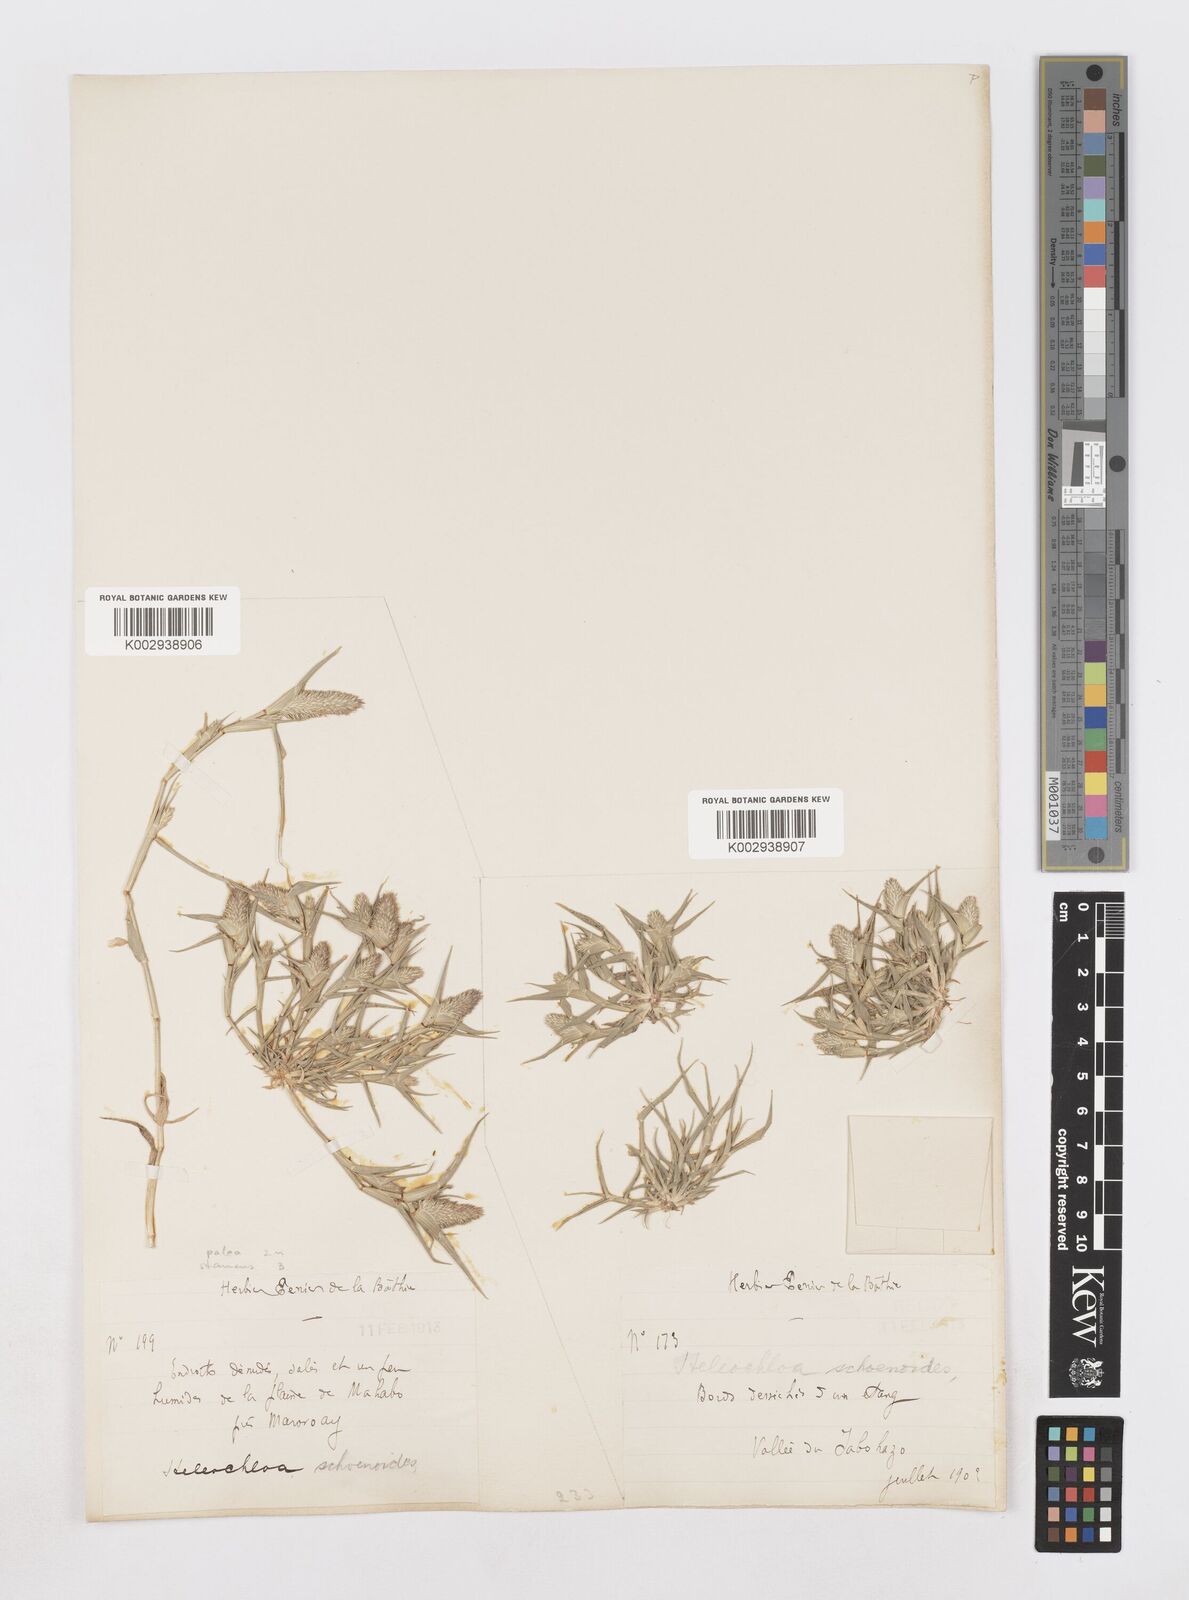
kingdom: Animalia
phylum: Arthropoda
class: Insecta
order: Coleoptera
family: Tenebrionidae
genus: Crypsis
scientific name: Crypsis
